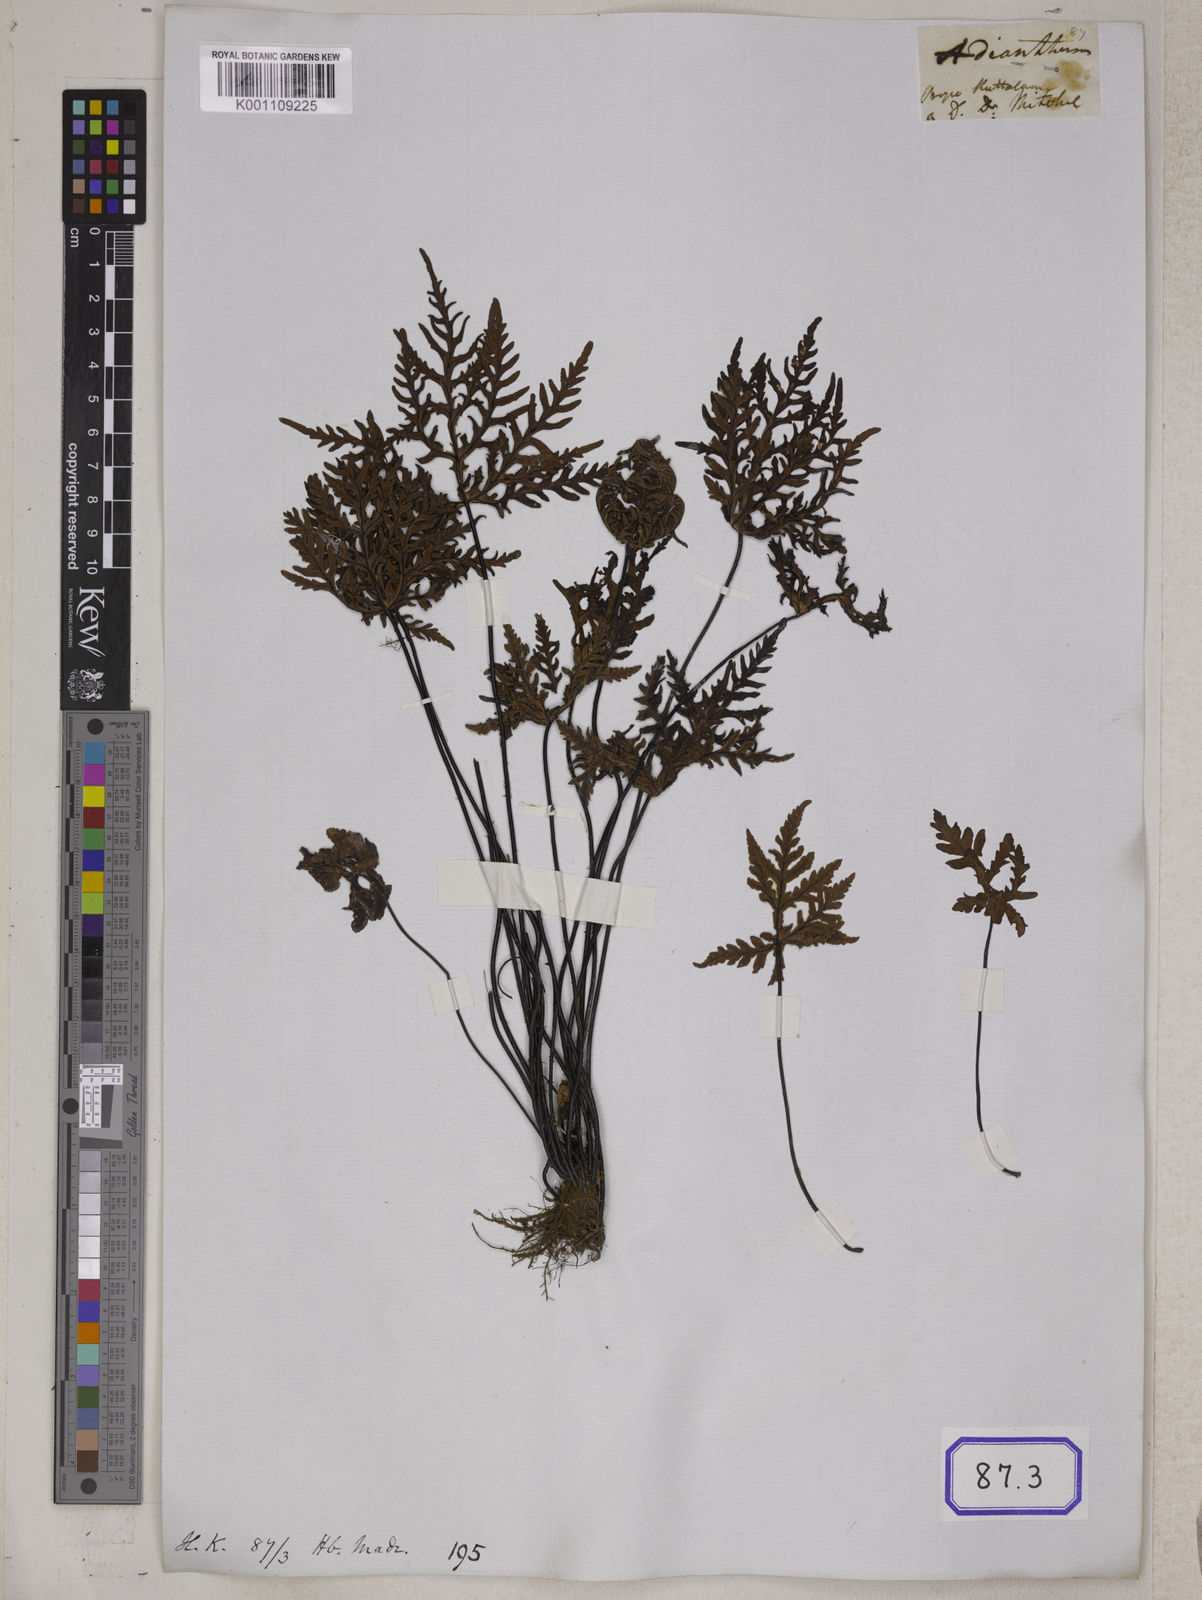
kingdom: Plantae
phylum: Tracheophyta
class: Polypodiopsida
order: Polypodiales
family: Pteridaceae
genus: Doryopteris
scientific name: Doryopteris concolor
